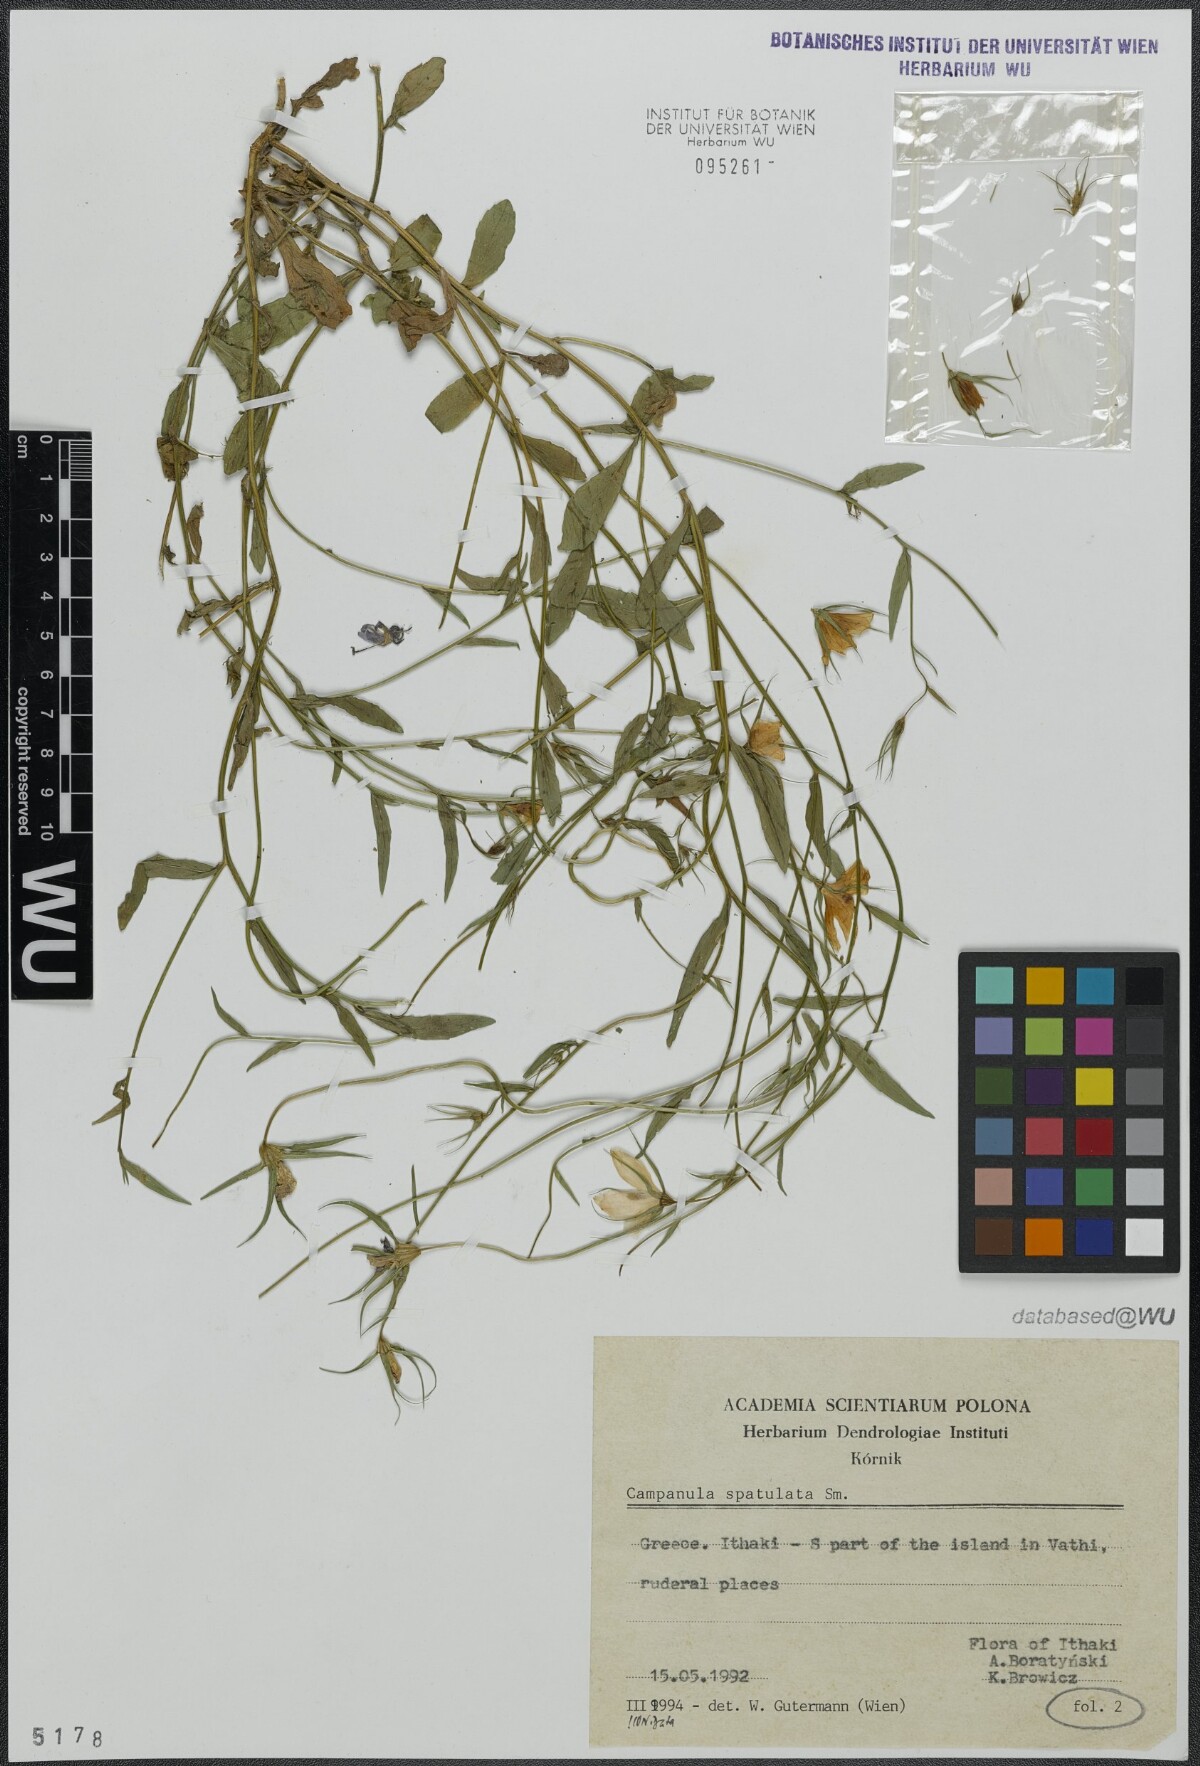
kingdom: Plantae
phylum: Tracheophyta
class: Magnoliopsida
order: Asterales
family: Campanulaceae
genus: Campanula
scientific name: Campanula spatulata
